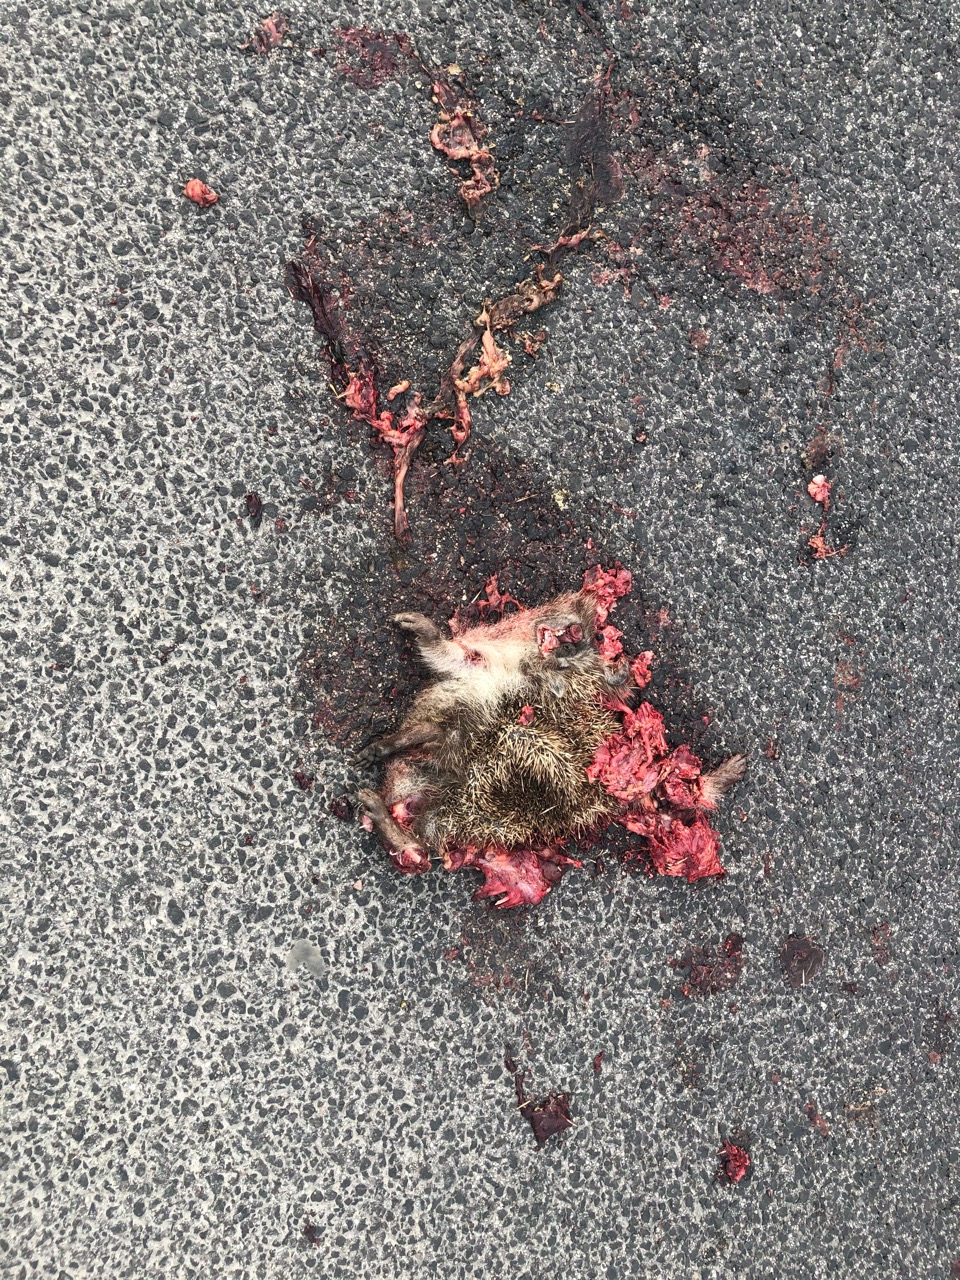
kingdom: Animalia
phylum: Chordata
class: Mammalia
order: Erinaceomorpha
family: Erinaceidae
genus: Erinaceus
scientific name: Erinaceus
